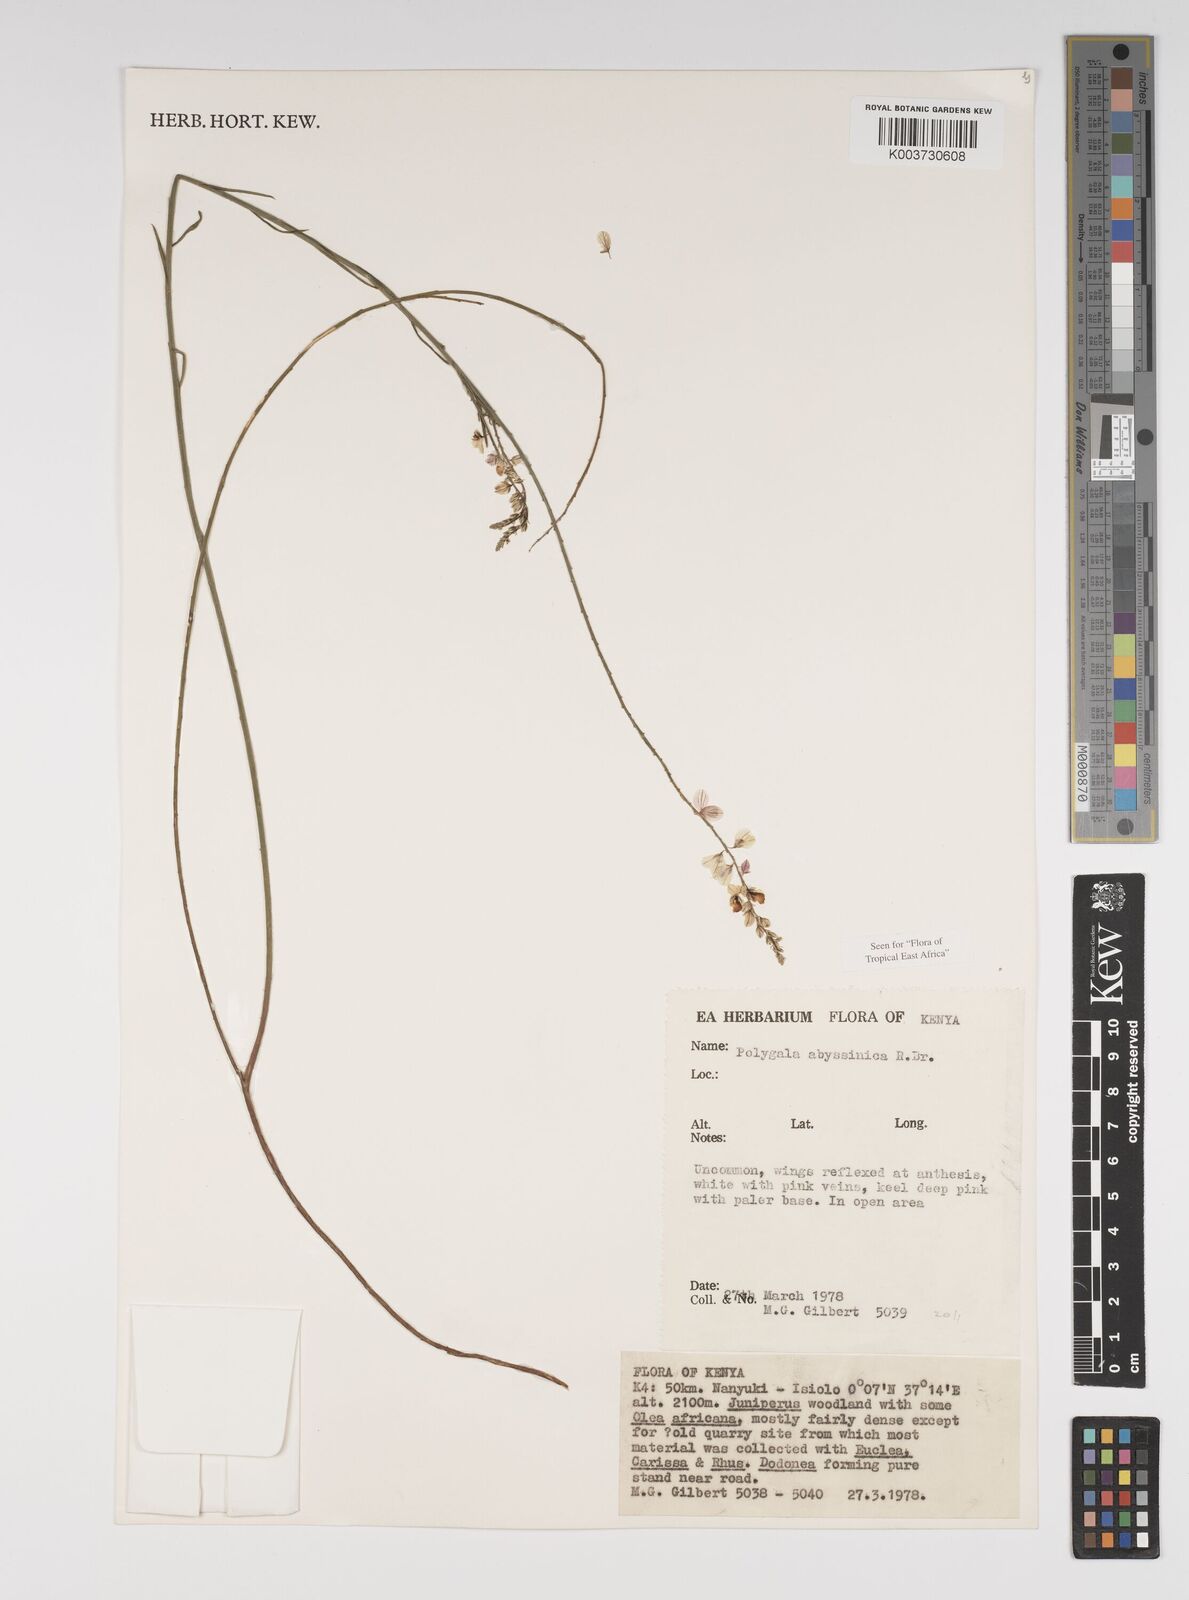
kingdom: Plantae
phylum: Tracheophyta
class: Magnoliopsida
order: Fabales
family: Polygalaceae
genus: Polygala
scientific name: Polygala abyssinica
